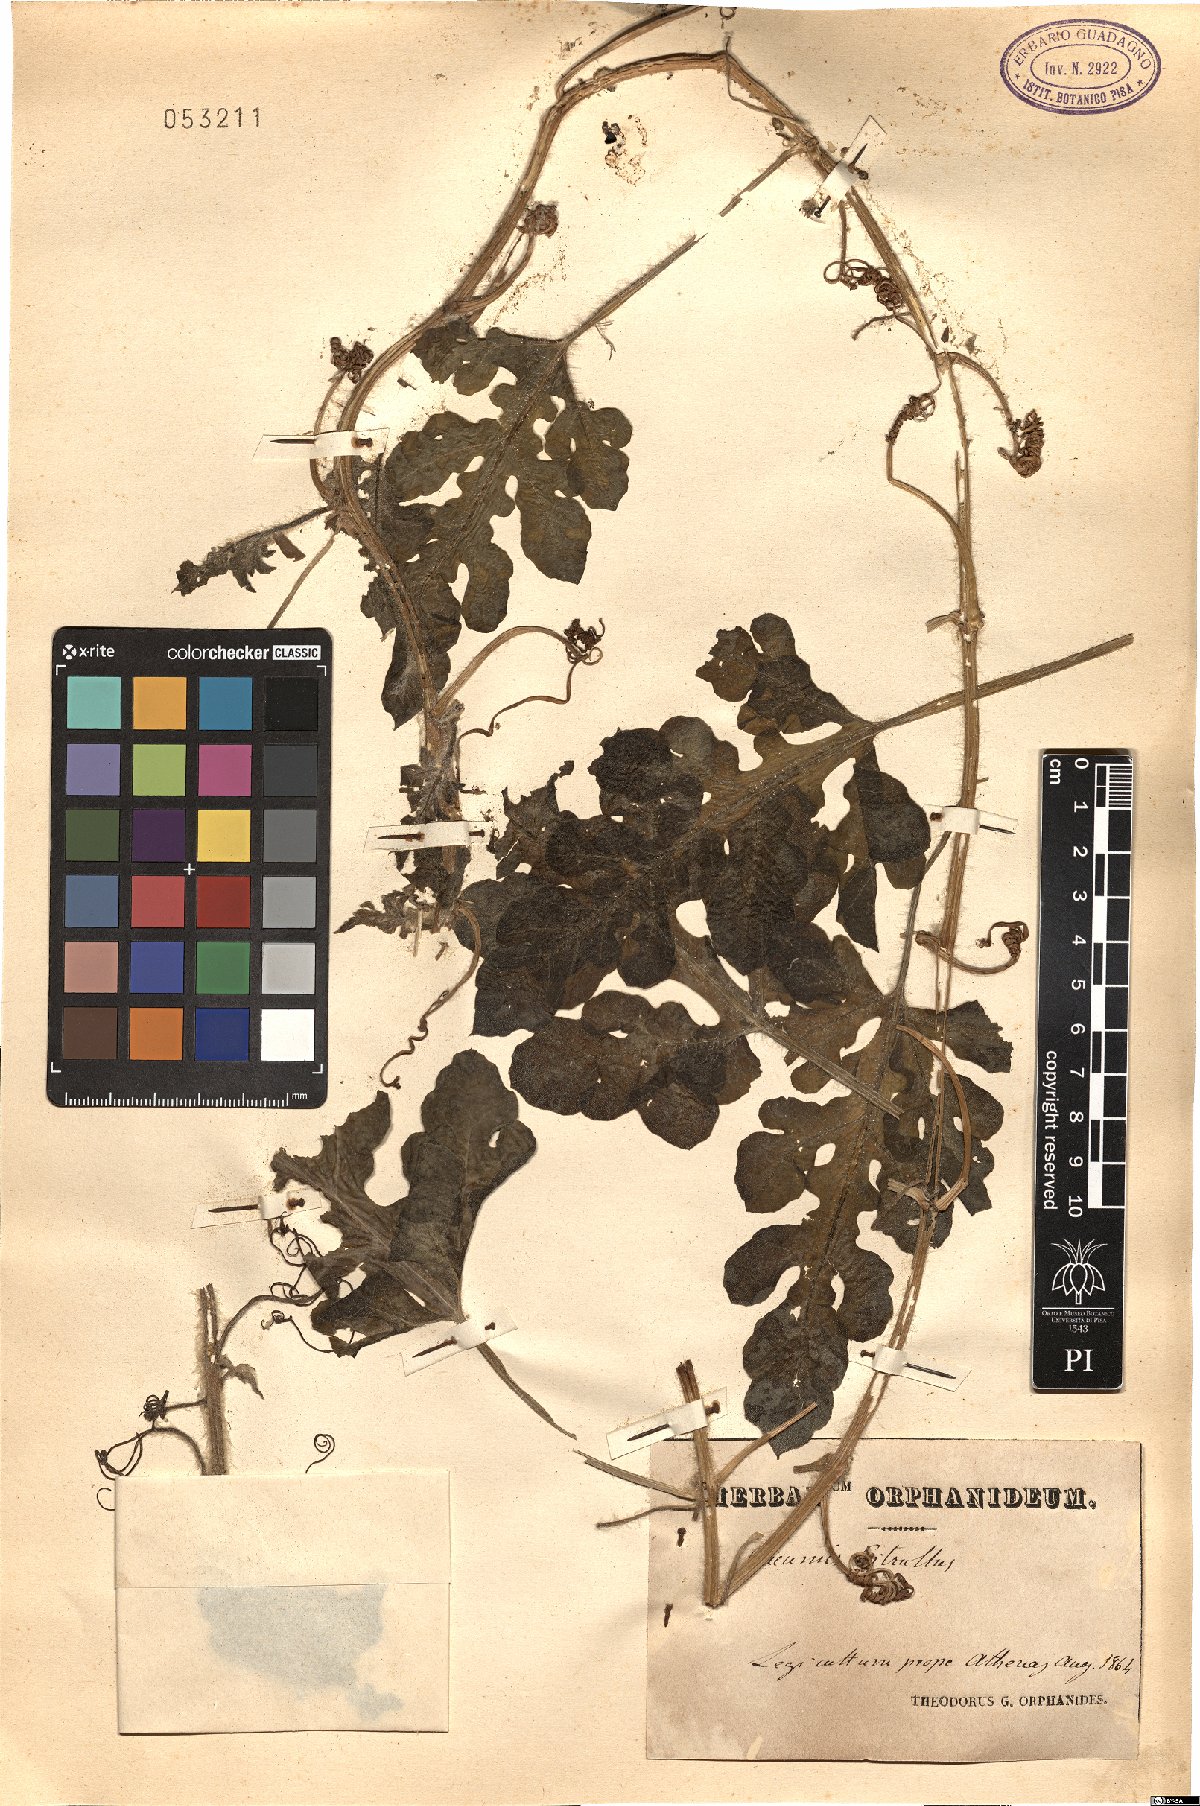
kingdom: Plantae
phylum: Tracheophyta
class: Magnoliopsida
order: Cucurbitales
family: Cucurbitaceae
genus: Citrullus
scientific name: Citrullus lanatus
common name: Watermelon
